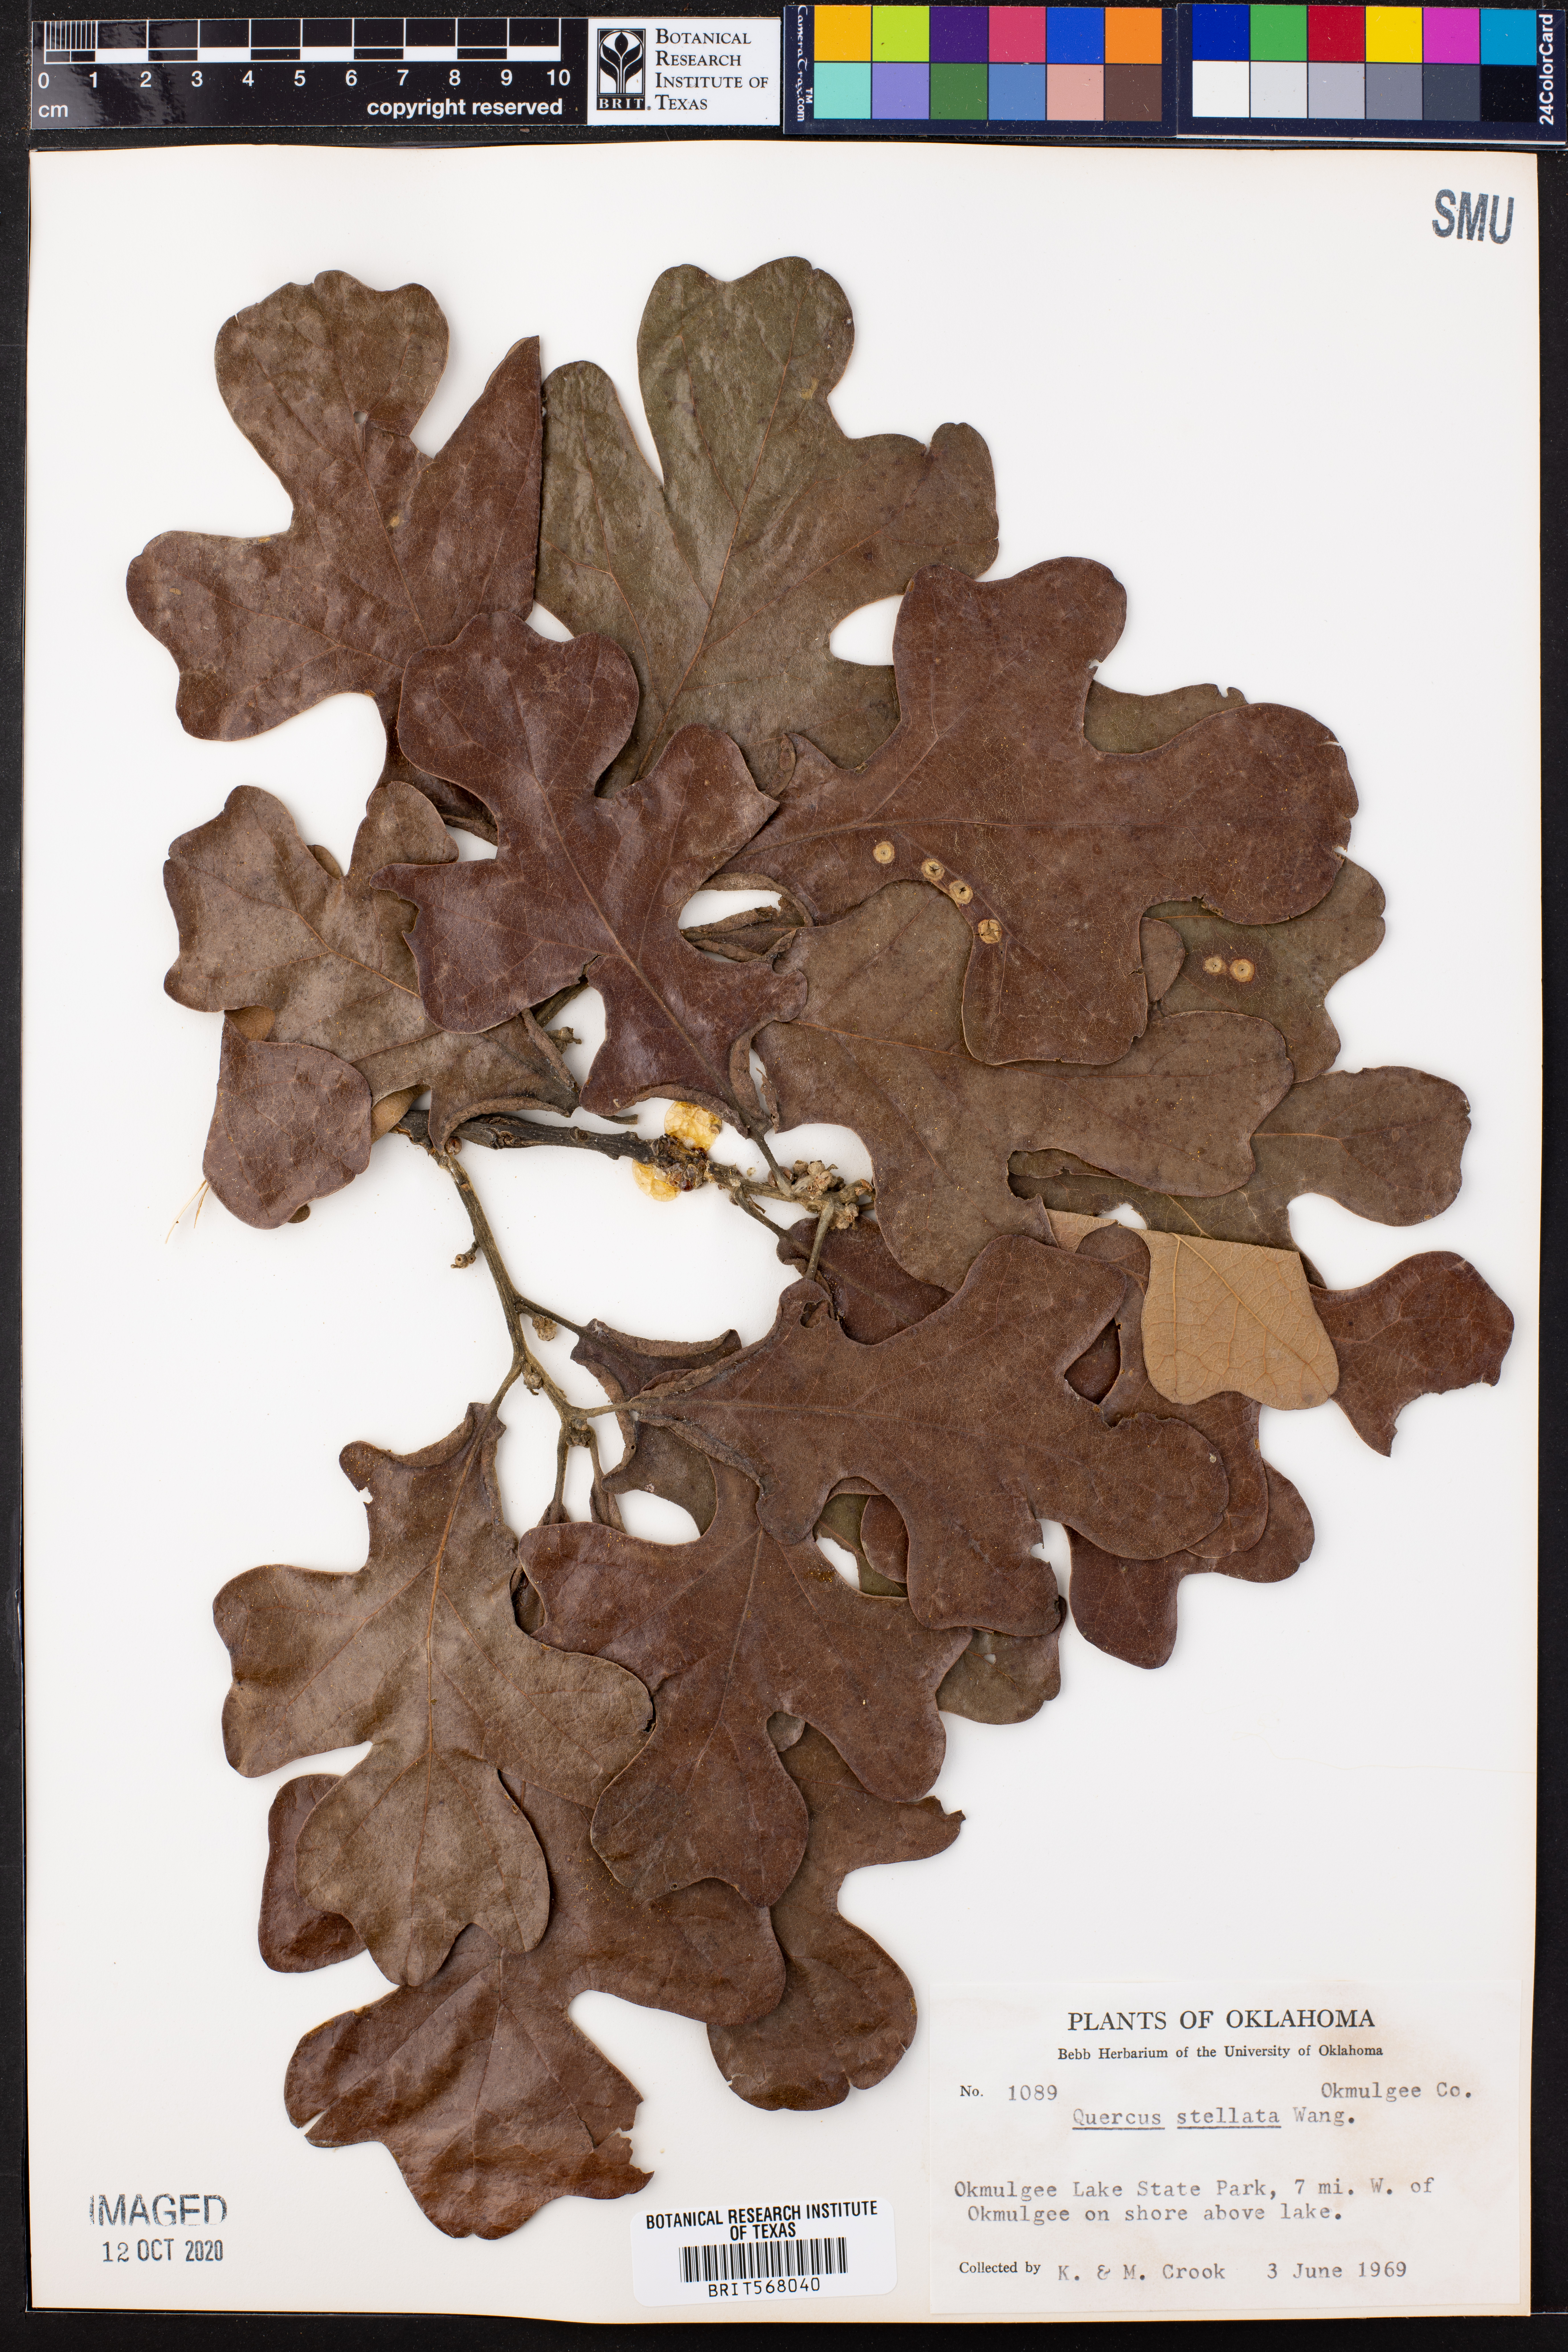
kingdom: Plantae
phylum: Tracheophyta
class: Magnoliopsida
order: Fagales
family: Fagaceae
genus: Quercus
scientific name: Quercus stellata
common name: Post oak
